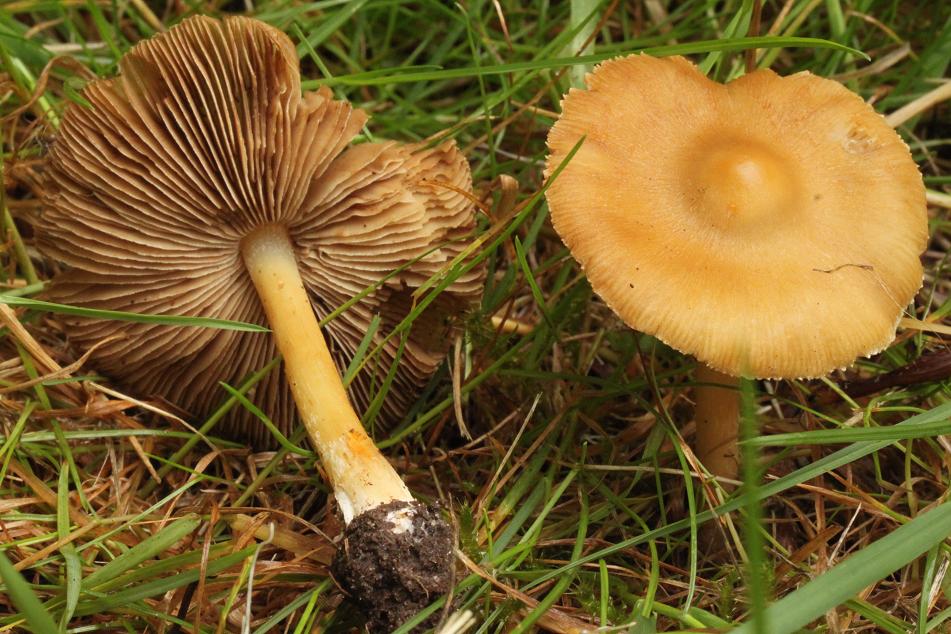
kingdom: Fungi
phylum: Basidiomycota
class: Agaricomycetes
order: Agaricales
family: Inocybaceae
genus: Inosperma
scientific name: Inosperma
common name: strågul trævlhat
